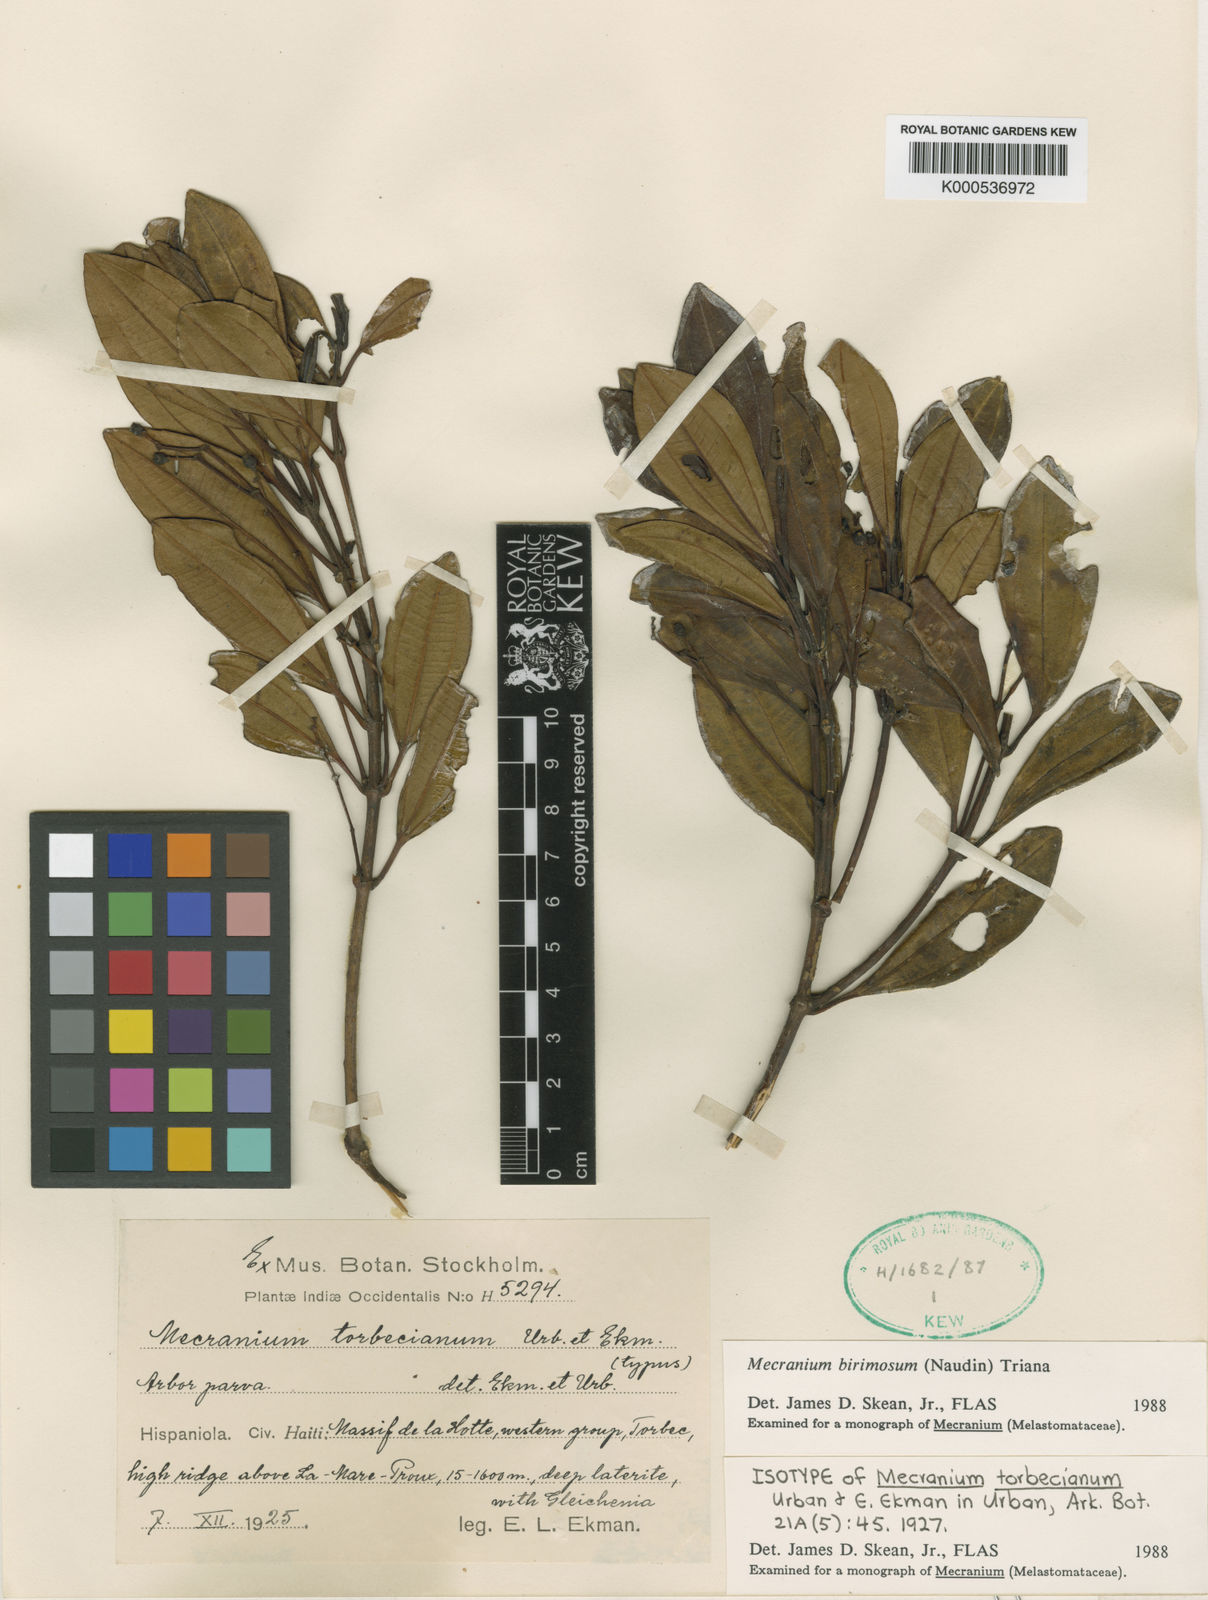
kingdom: Plantae
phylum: Tracheophyta
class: Magnoliopsida
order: Myrtales
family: Melastomataceae
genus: Miconia
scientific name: Miconia birimosa
